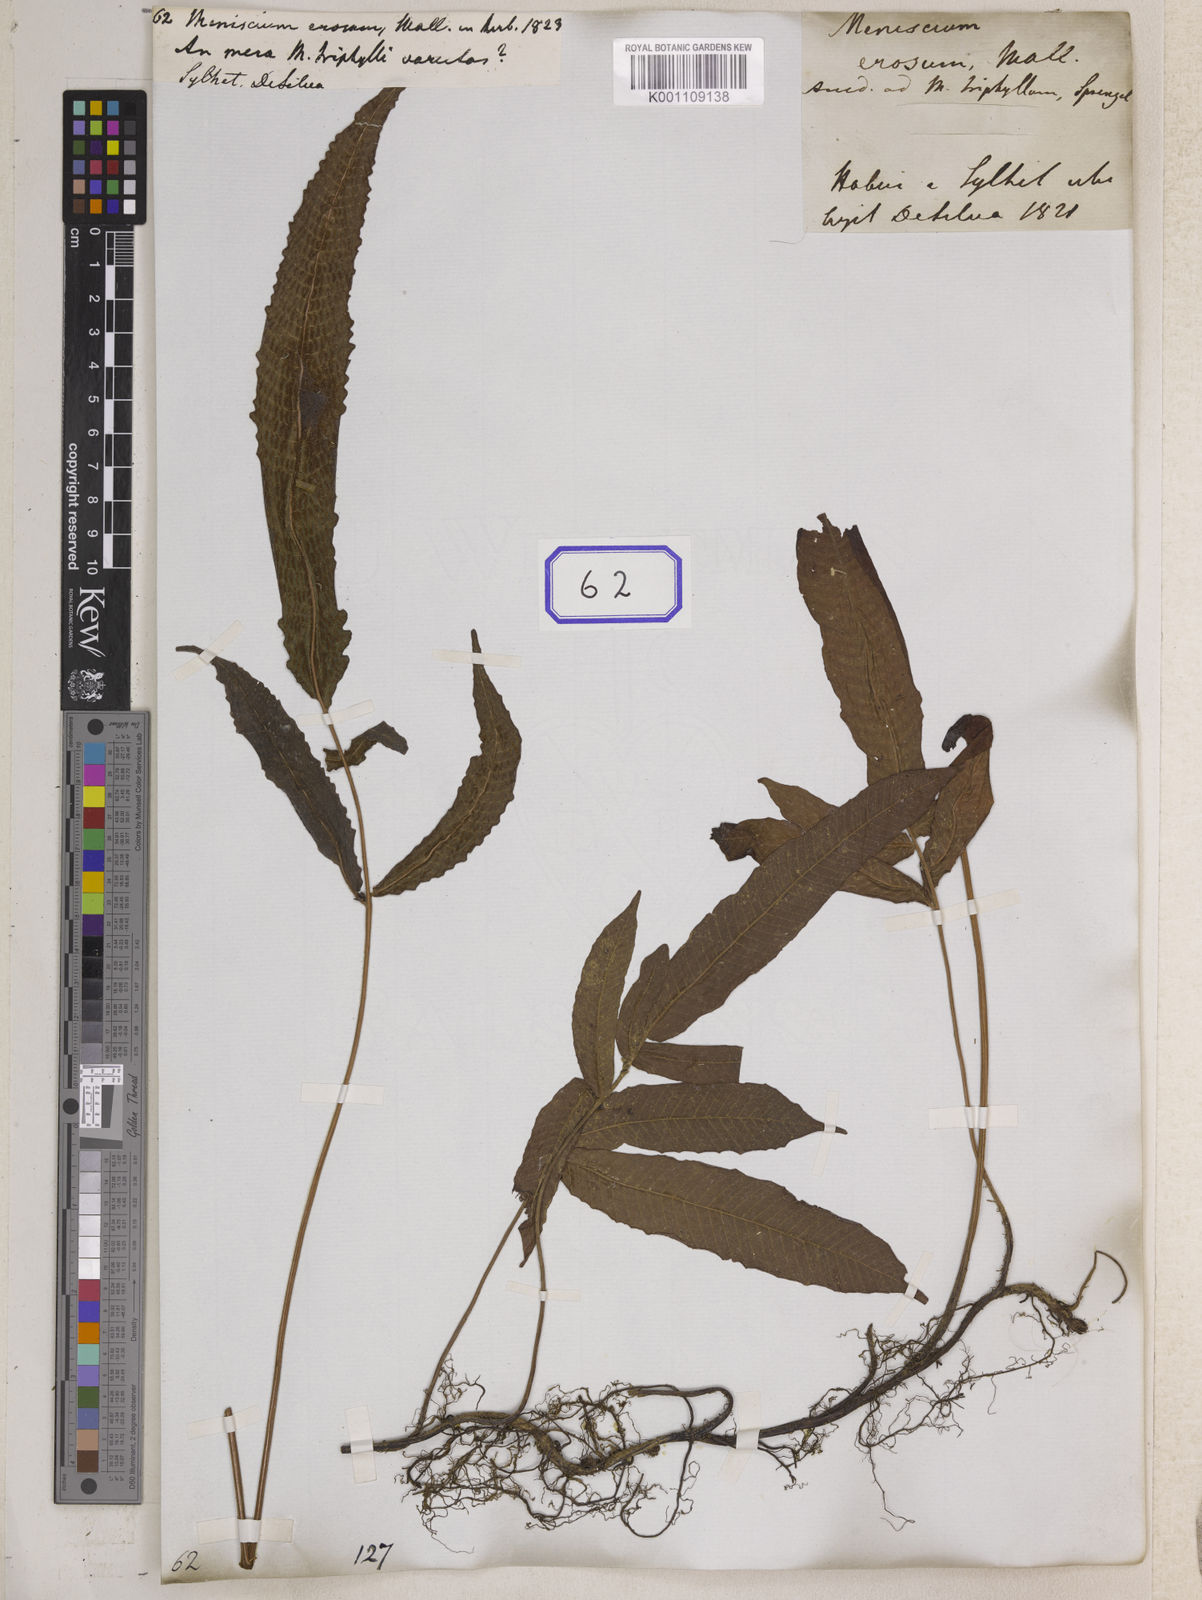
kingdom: Plantae
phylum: Tracheophyta
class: Polypodiopsida
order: Polypodiales
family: Thelypteridaceae
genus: Grypothrix
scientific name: Grypothrix simplex
